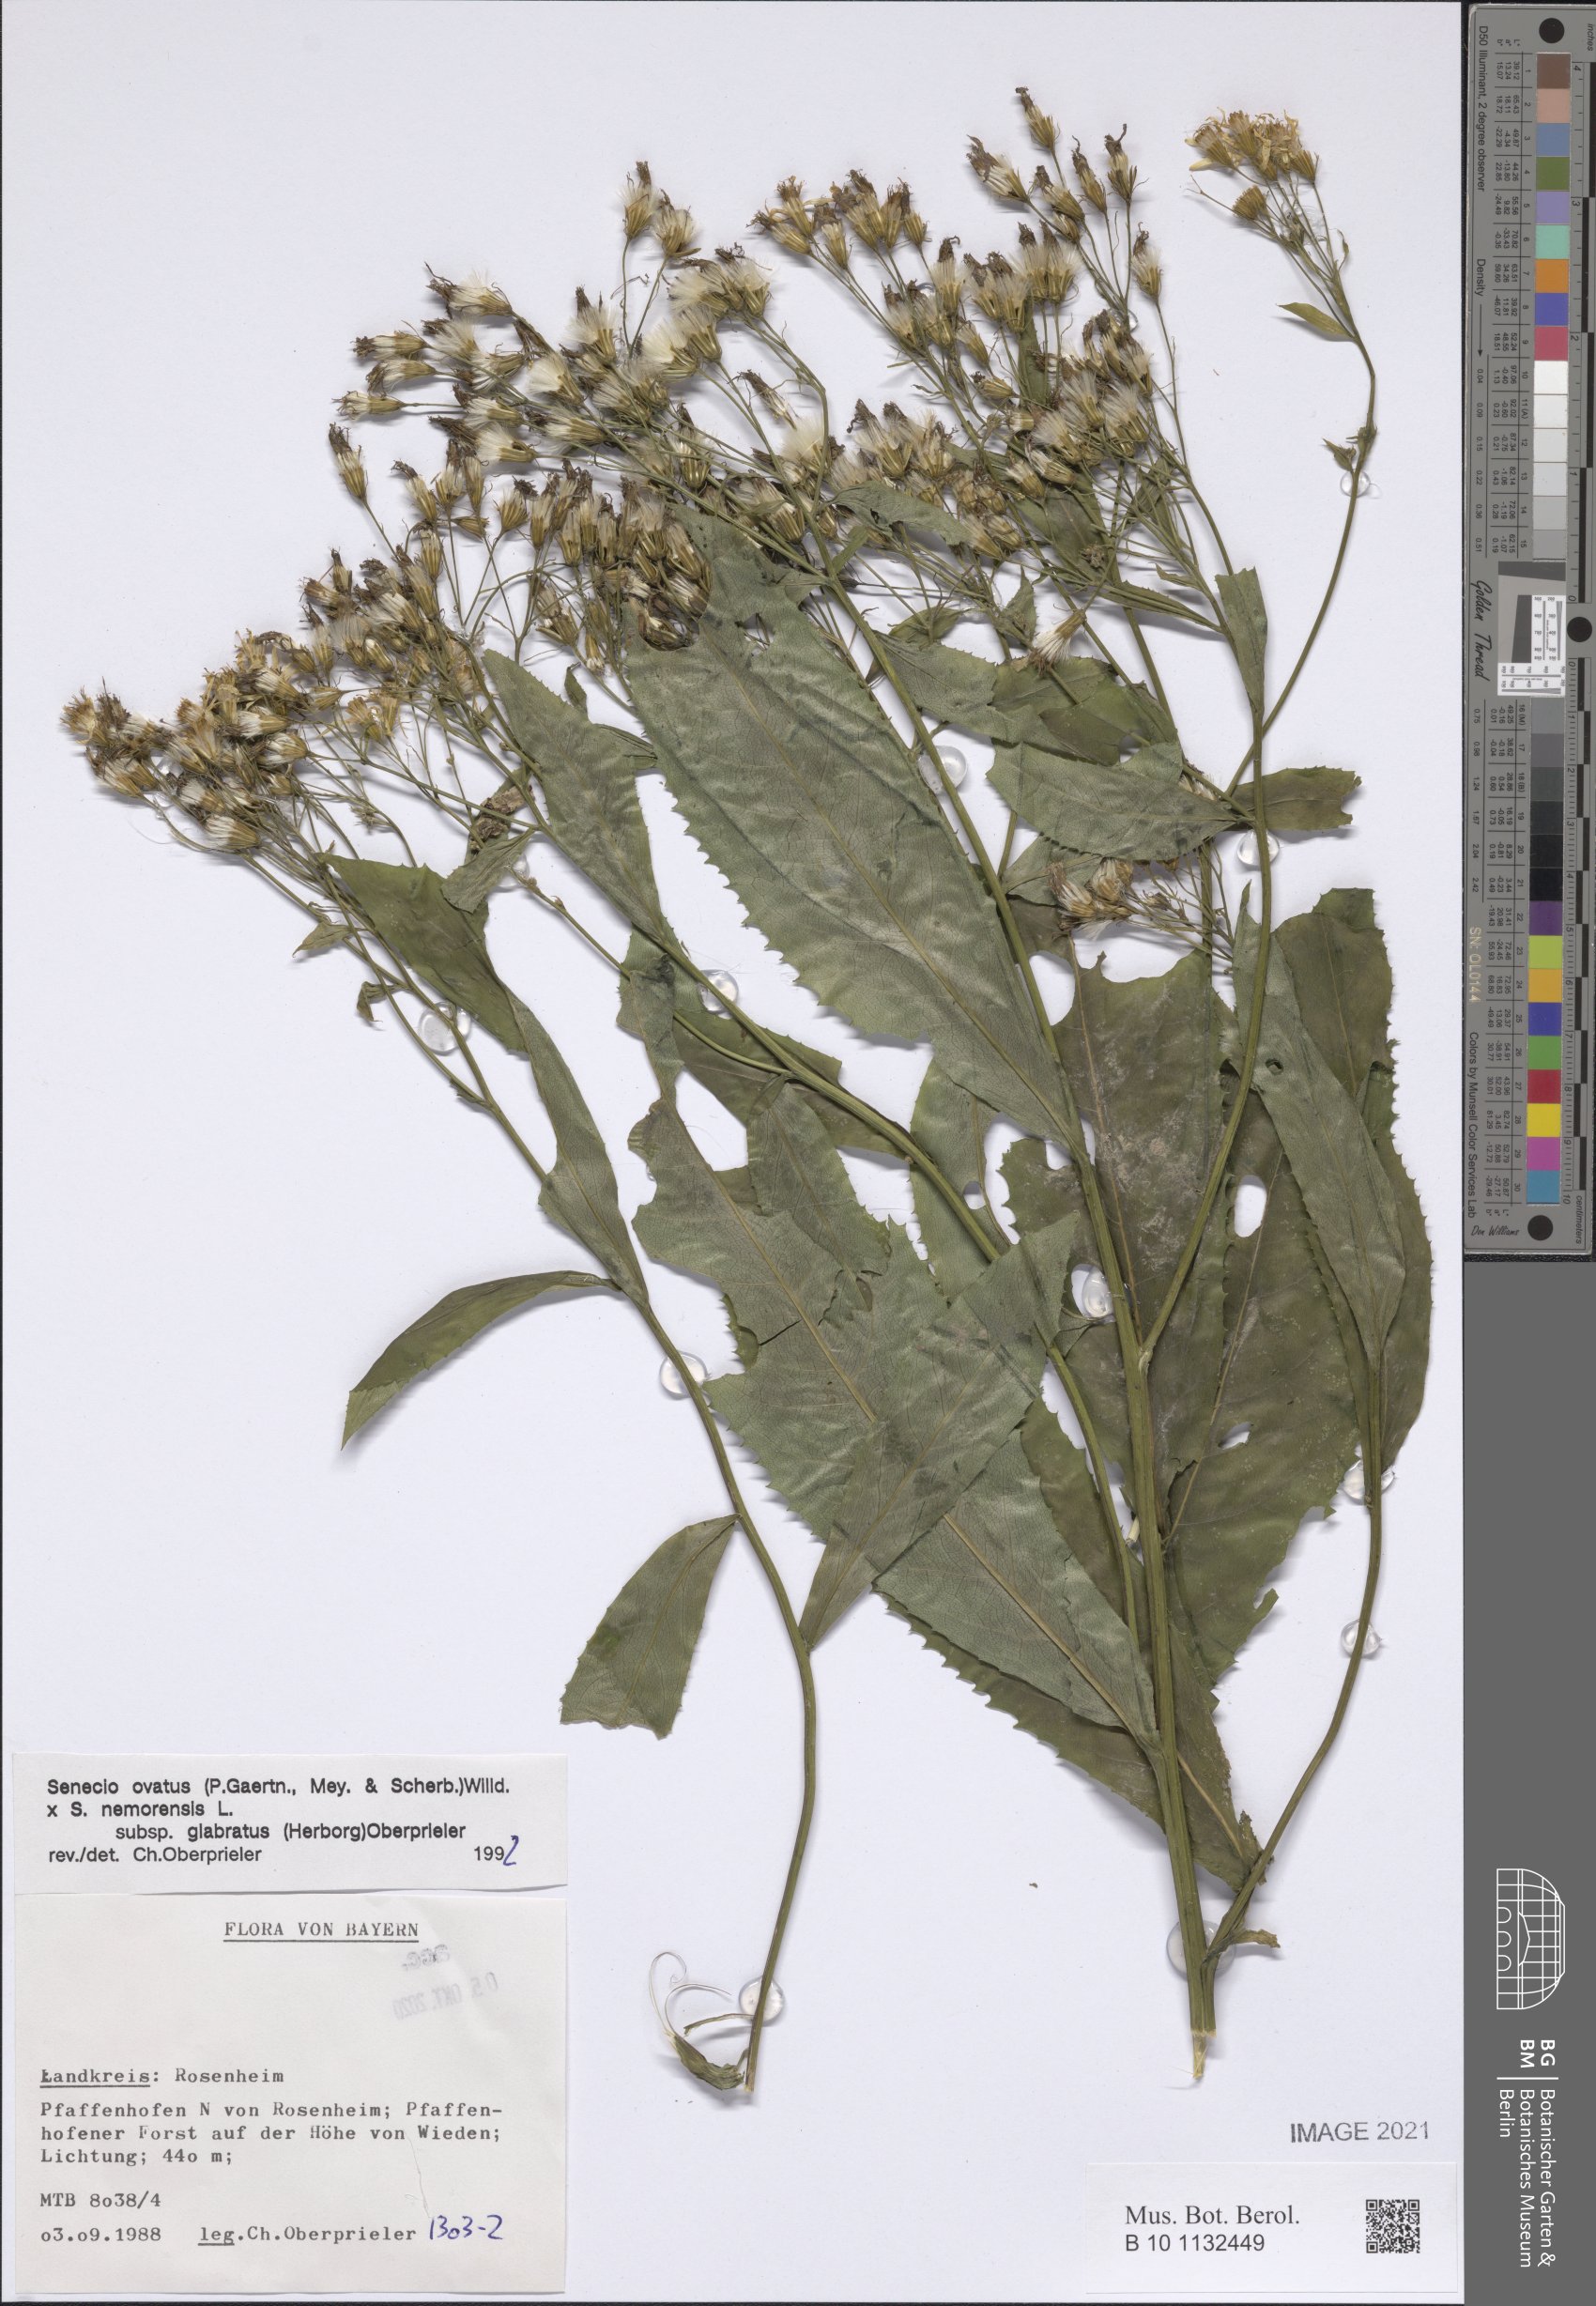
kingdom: Plantae
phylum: Tracheophyta
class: Magnoliopsida
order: Asterales
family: Asteraceae
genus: Senecio
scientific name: Senecio ovatus
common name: Wood ragwort
